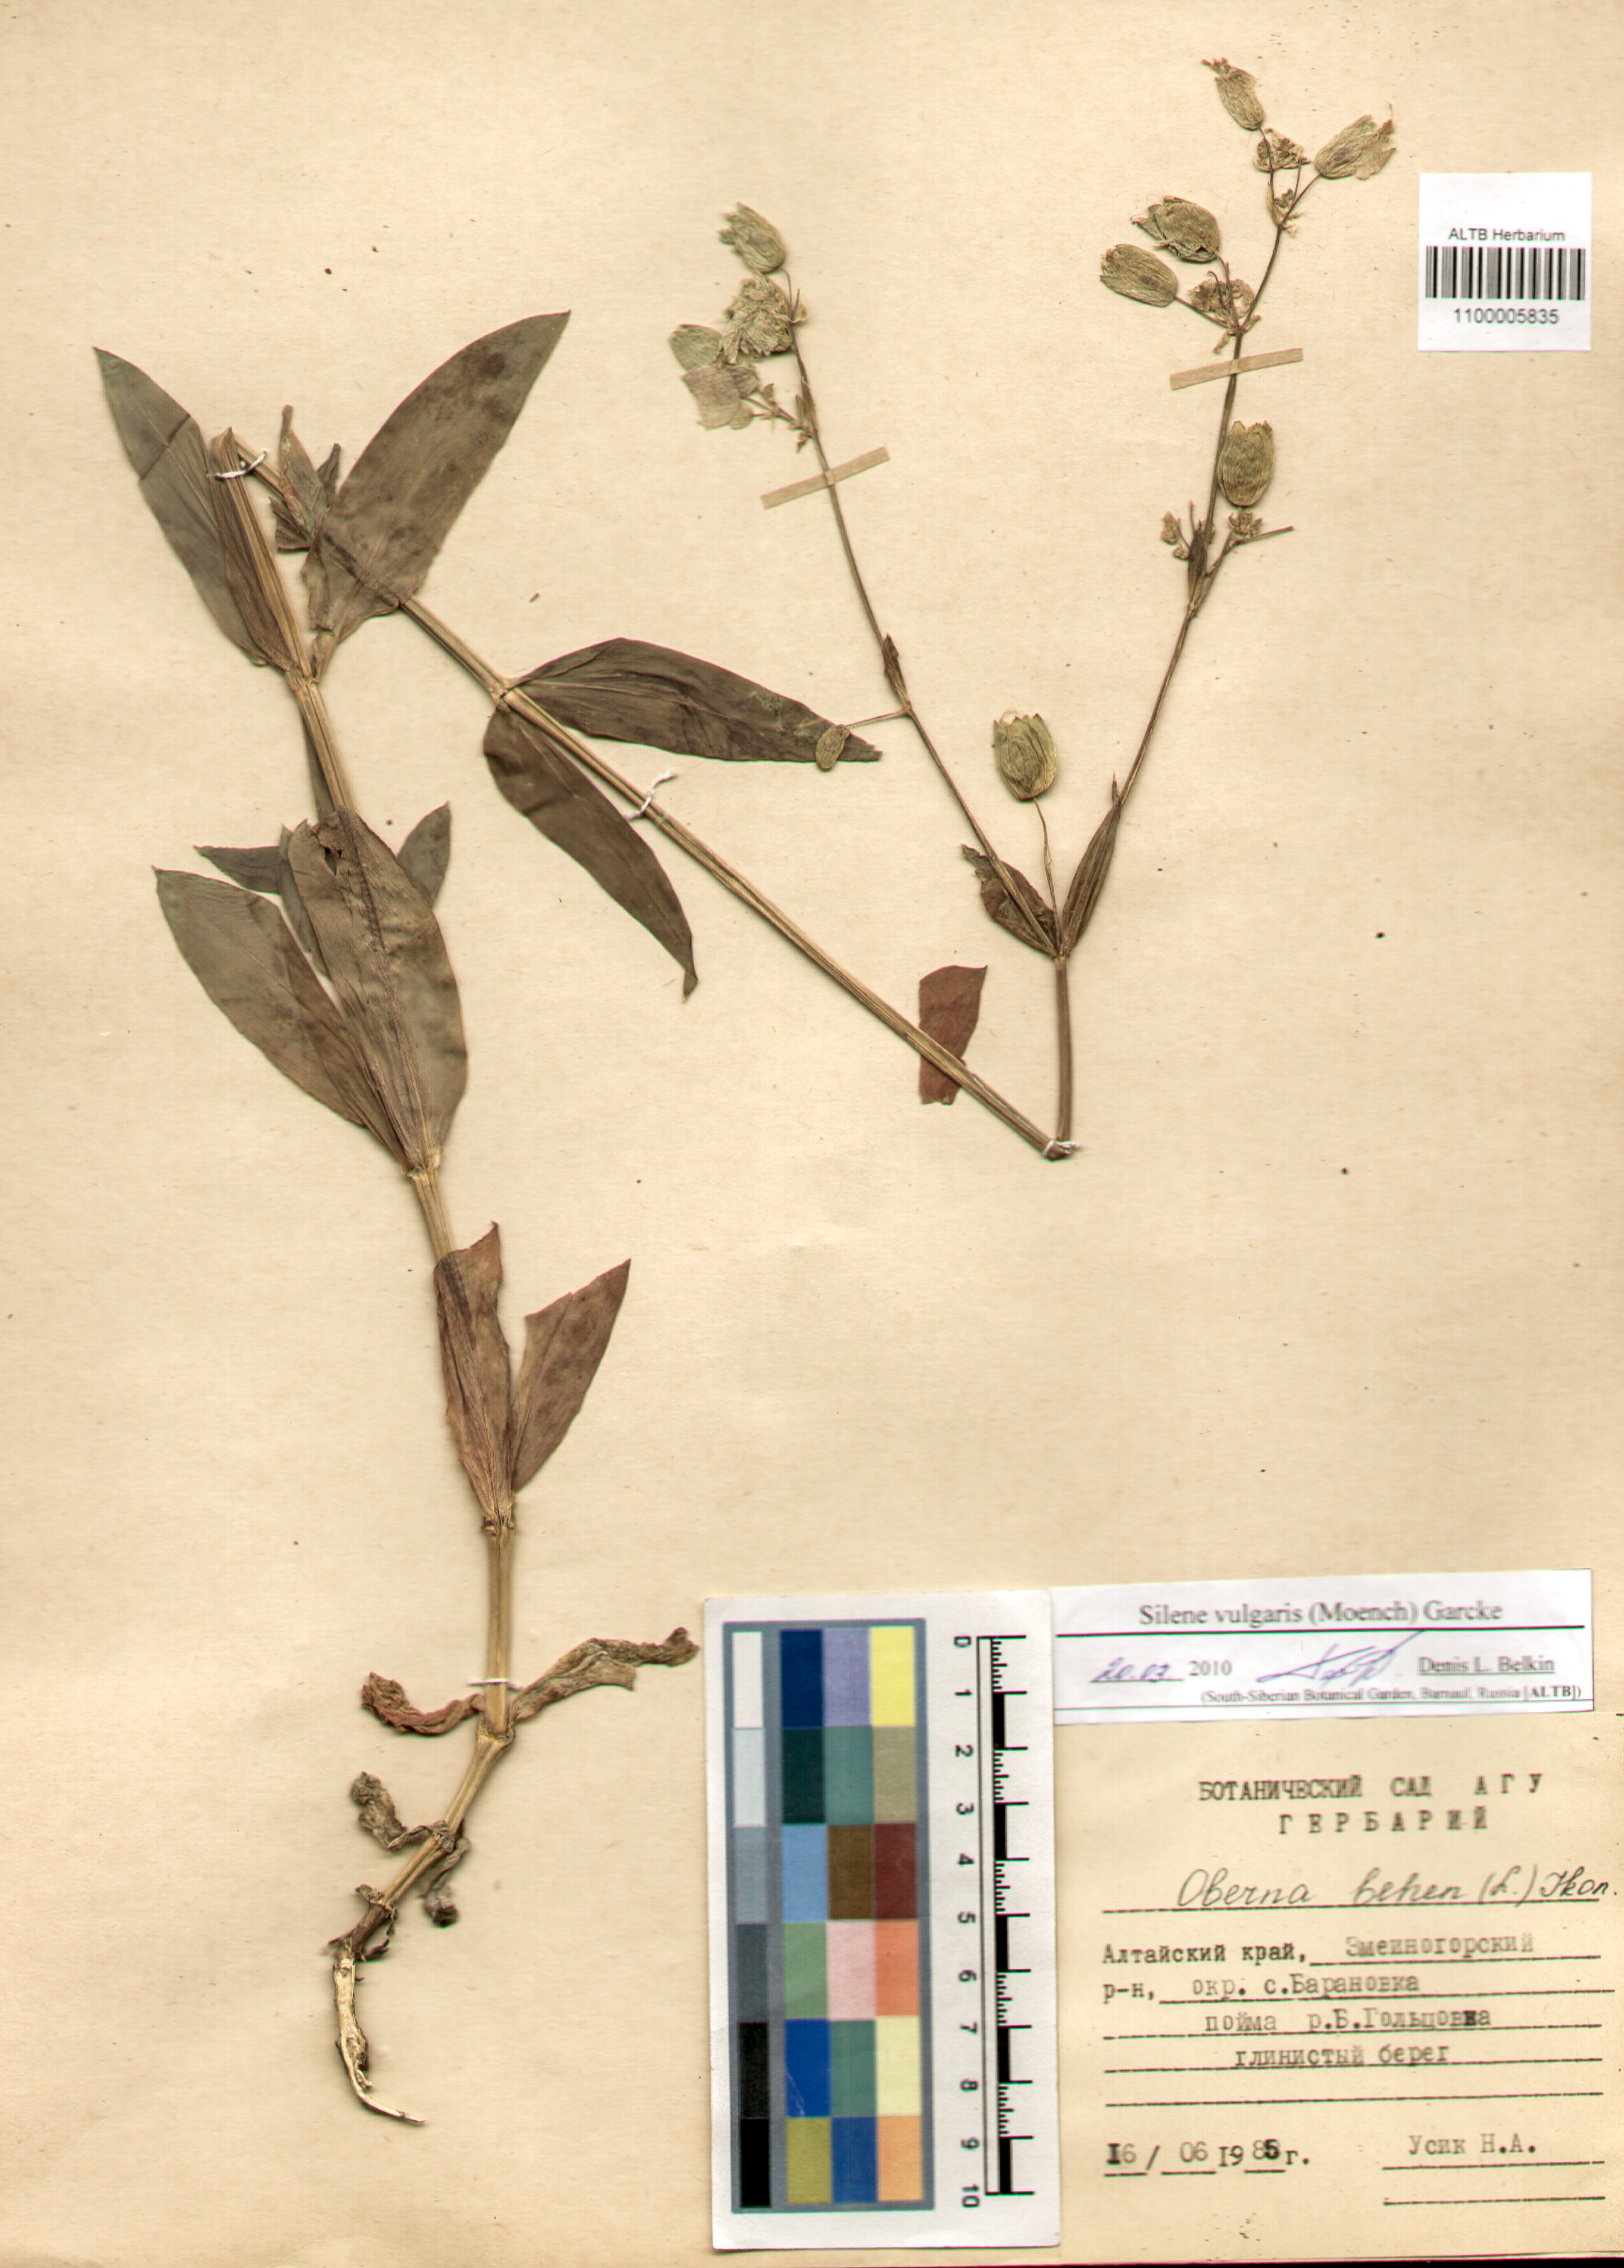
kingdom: Plantae
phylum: Tracheophyta
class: Magnoliopsida
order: Caryophyllales
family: Caryophyllaceae
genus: Silene
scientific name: Silene vulgaris
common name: Bladder campion
